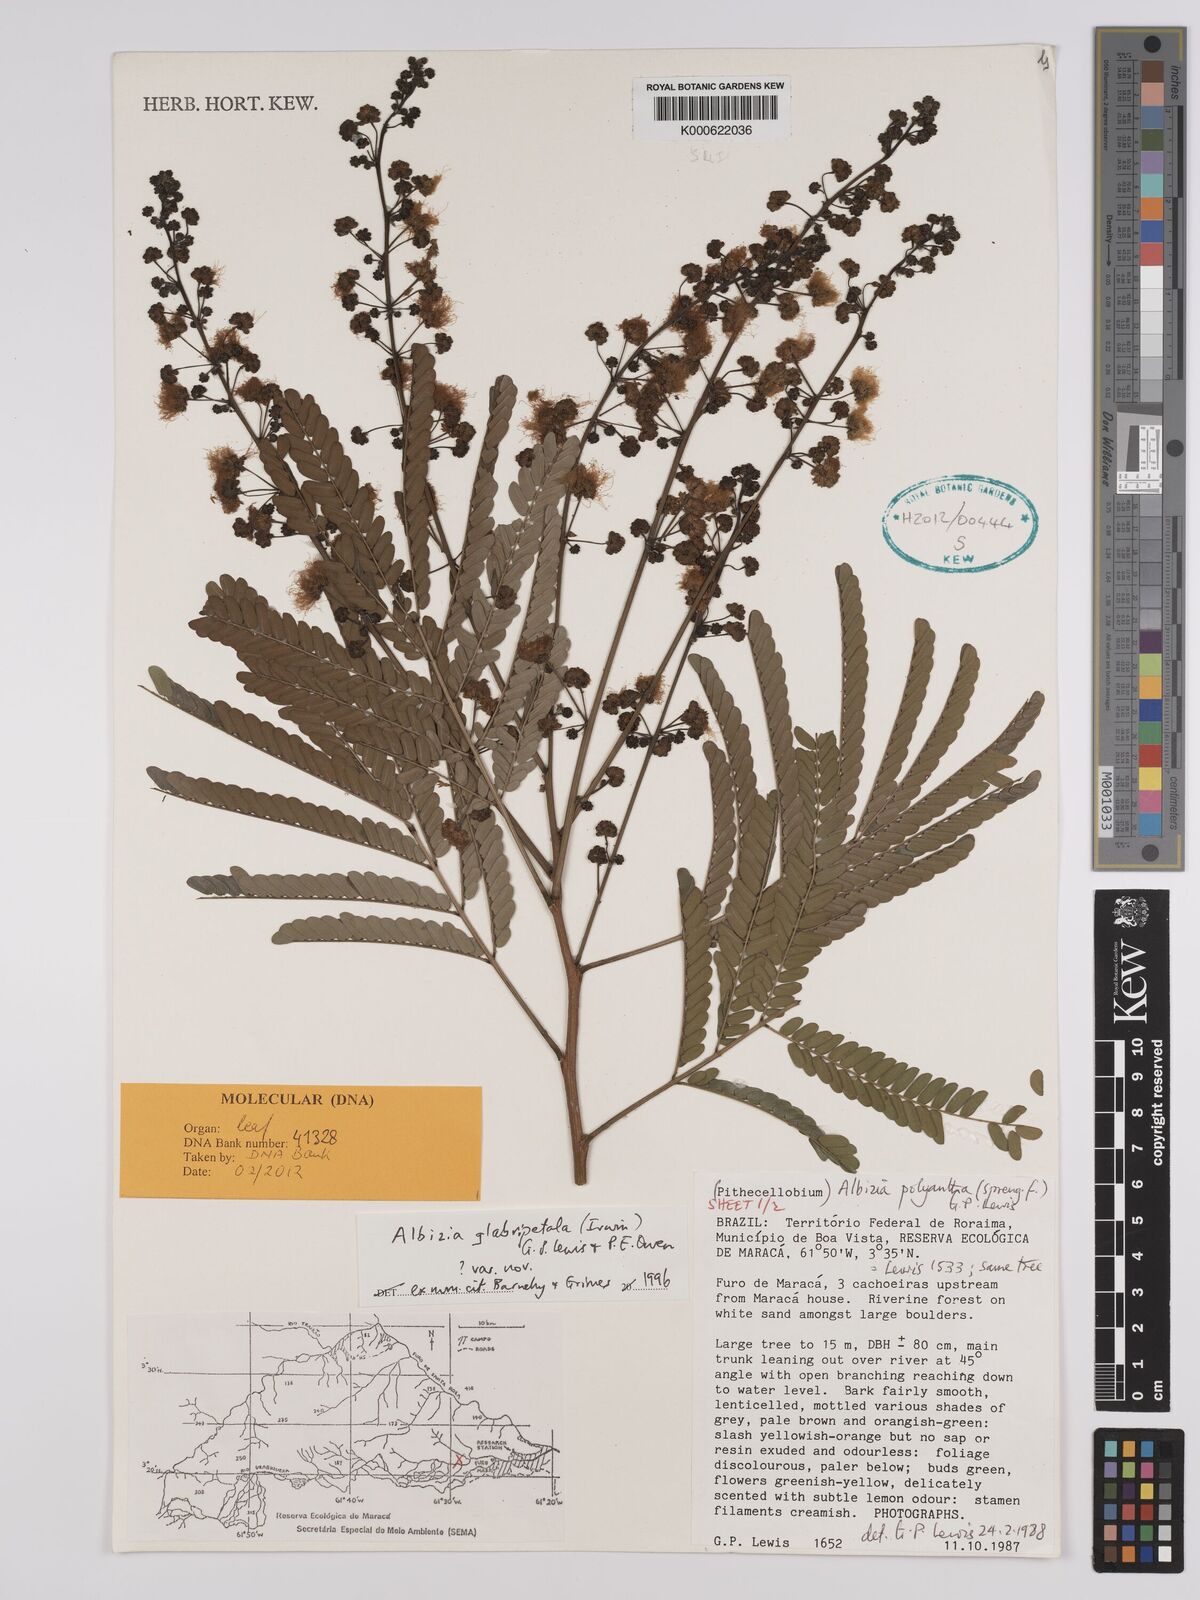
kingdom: Plantae
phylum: Tracheophyta
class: Magnoliopsida
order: Fabales
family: Fabaceae
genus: Albizia
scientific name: Albizia glabripetala
